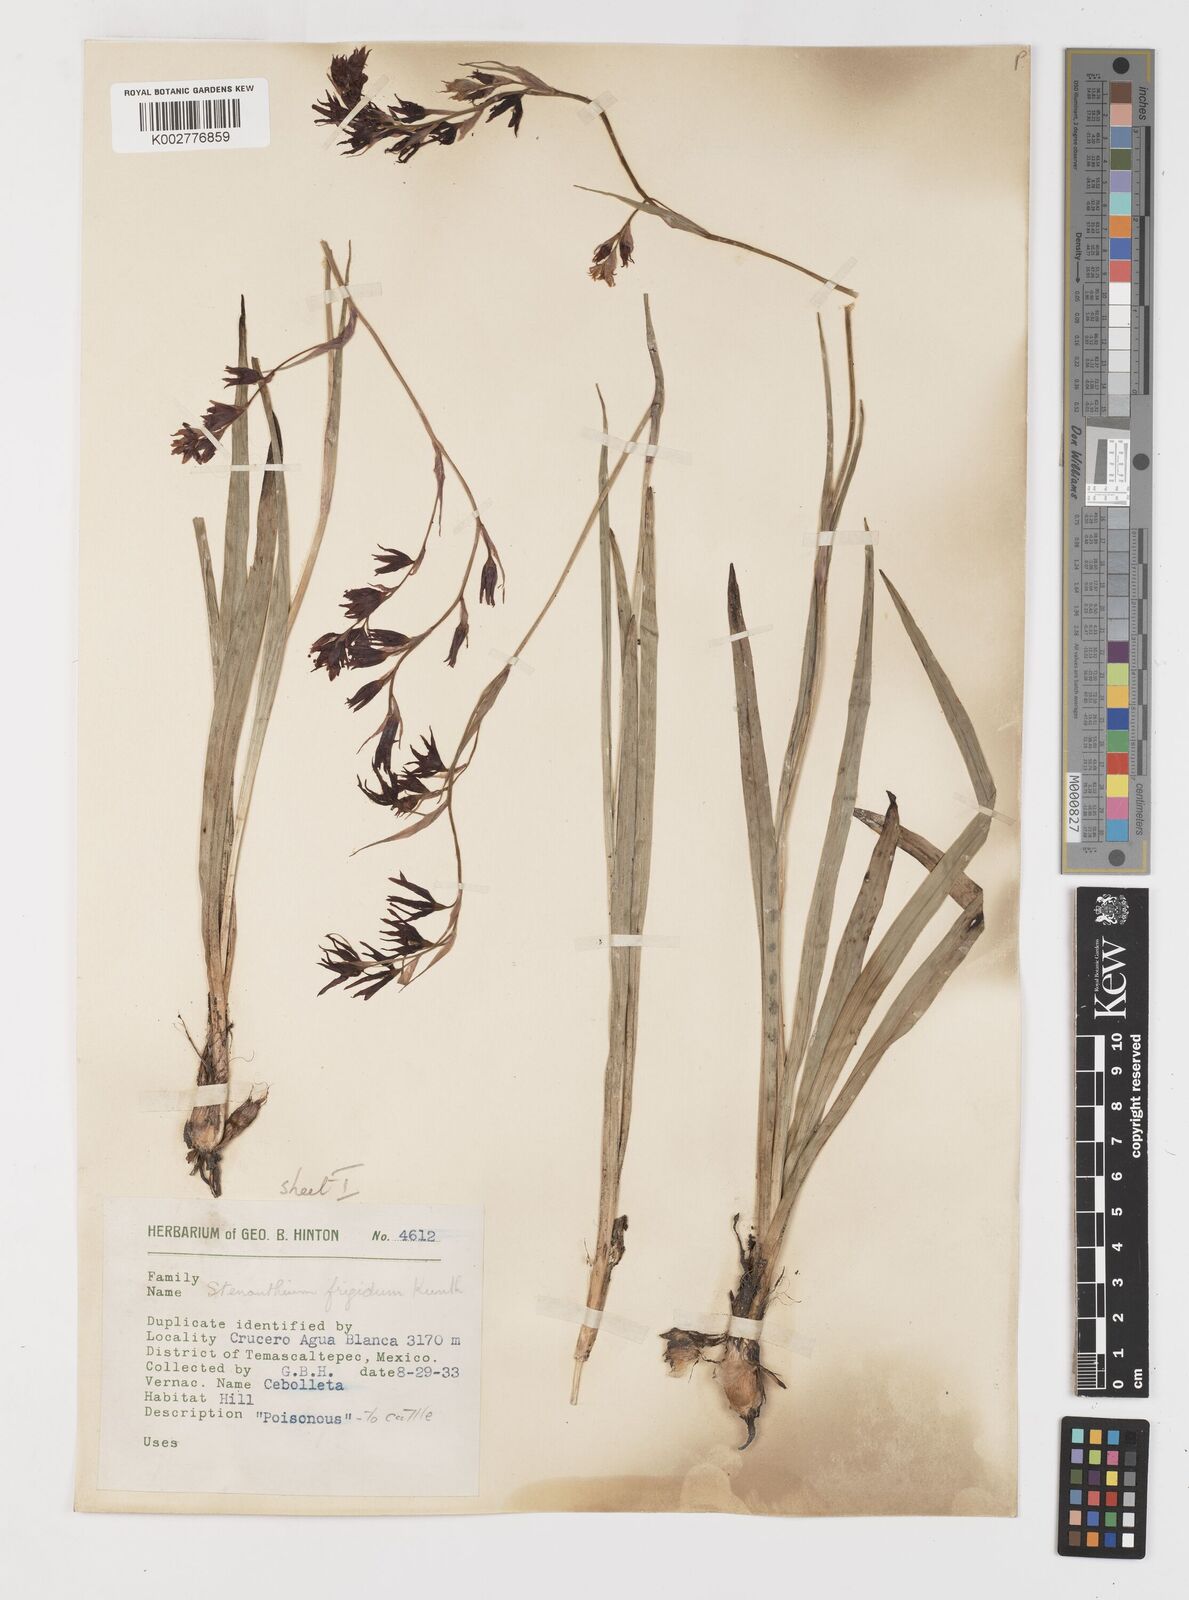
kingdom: Plantae
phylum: Tracheophyta
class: Liliopsida
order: Liliales
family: Melanthiaceae
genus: Anticlea
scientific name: Anticlea frigida
